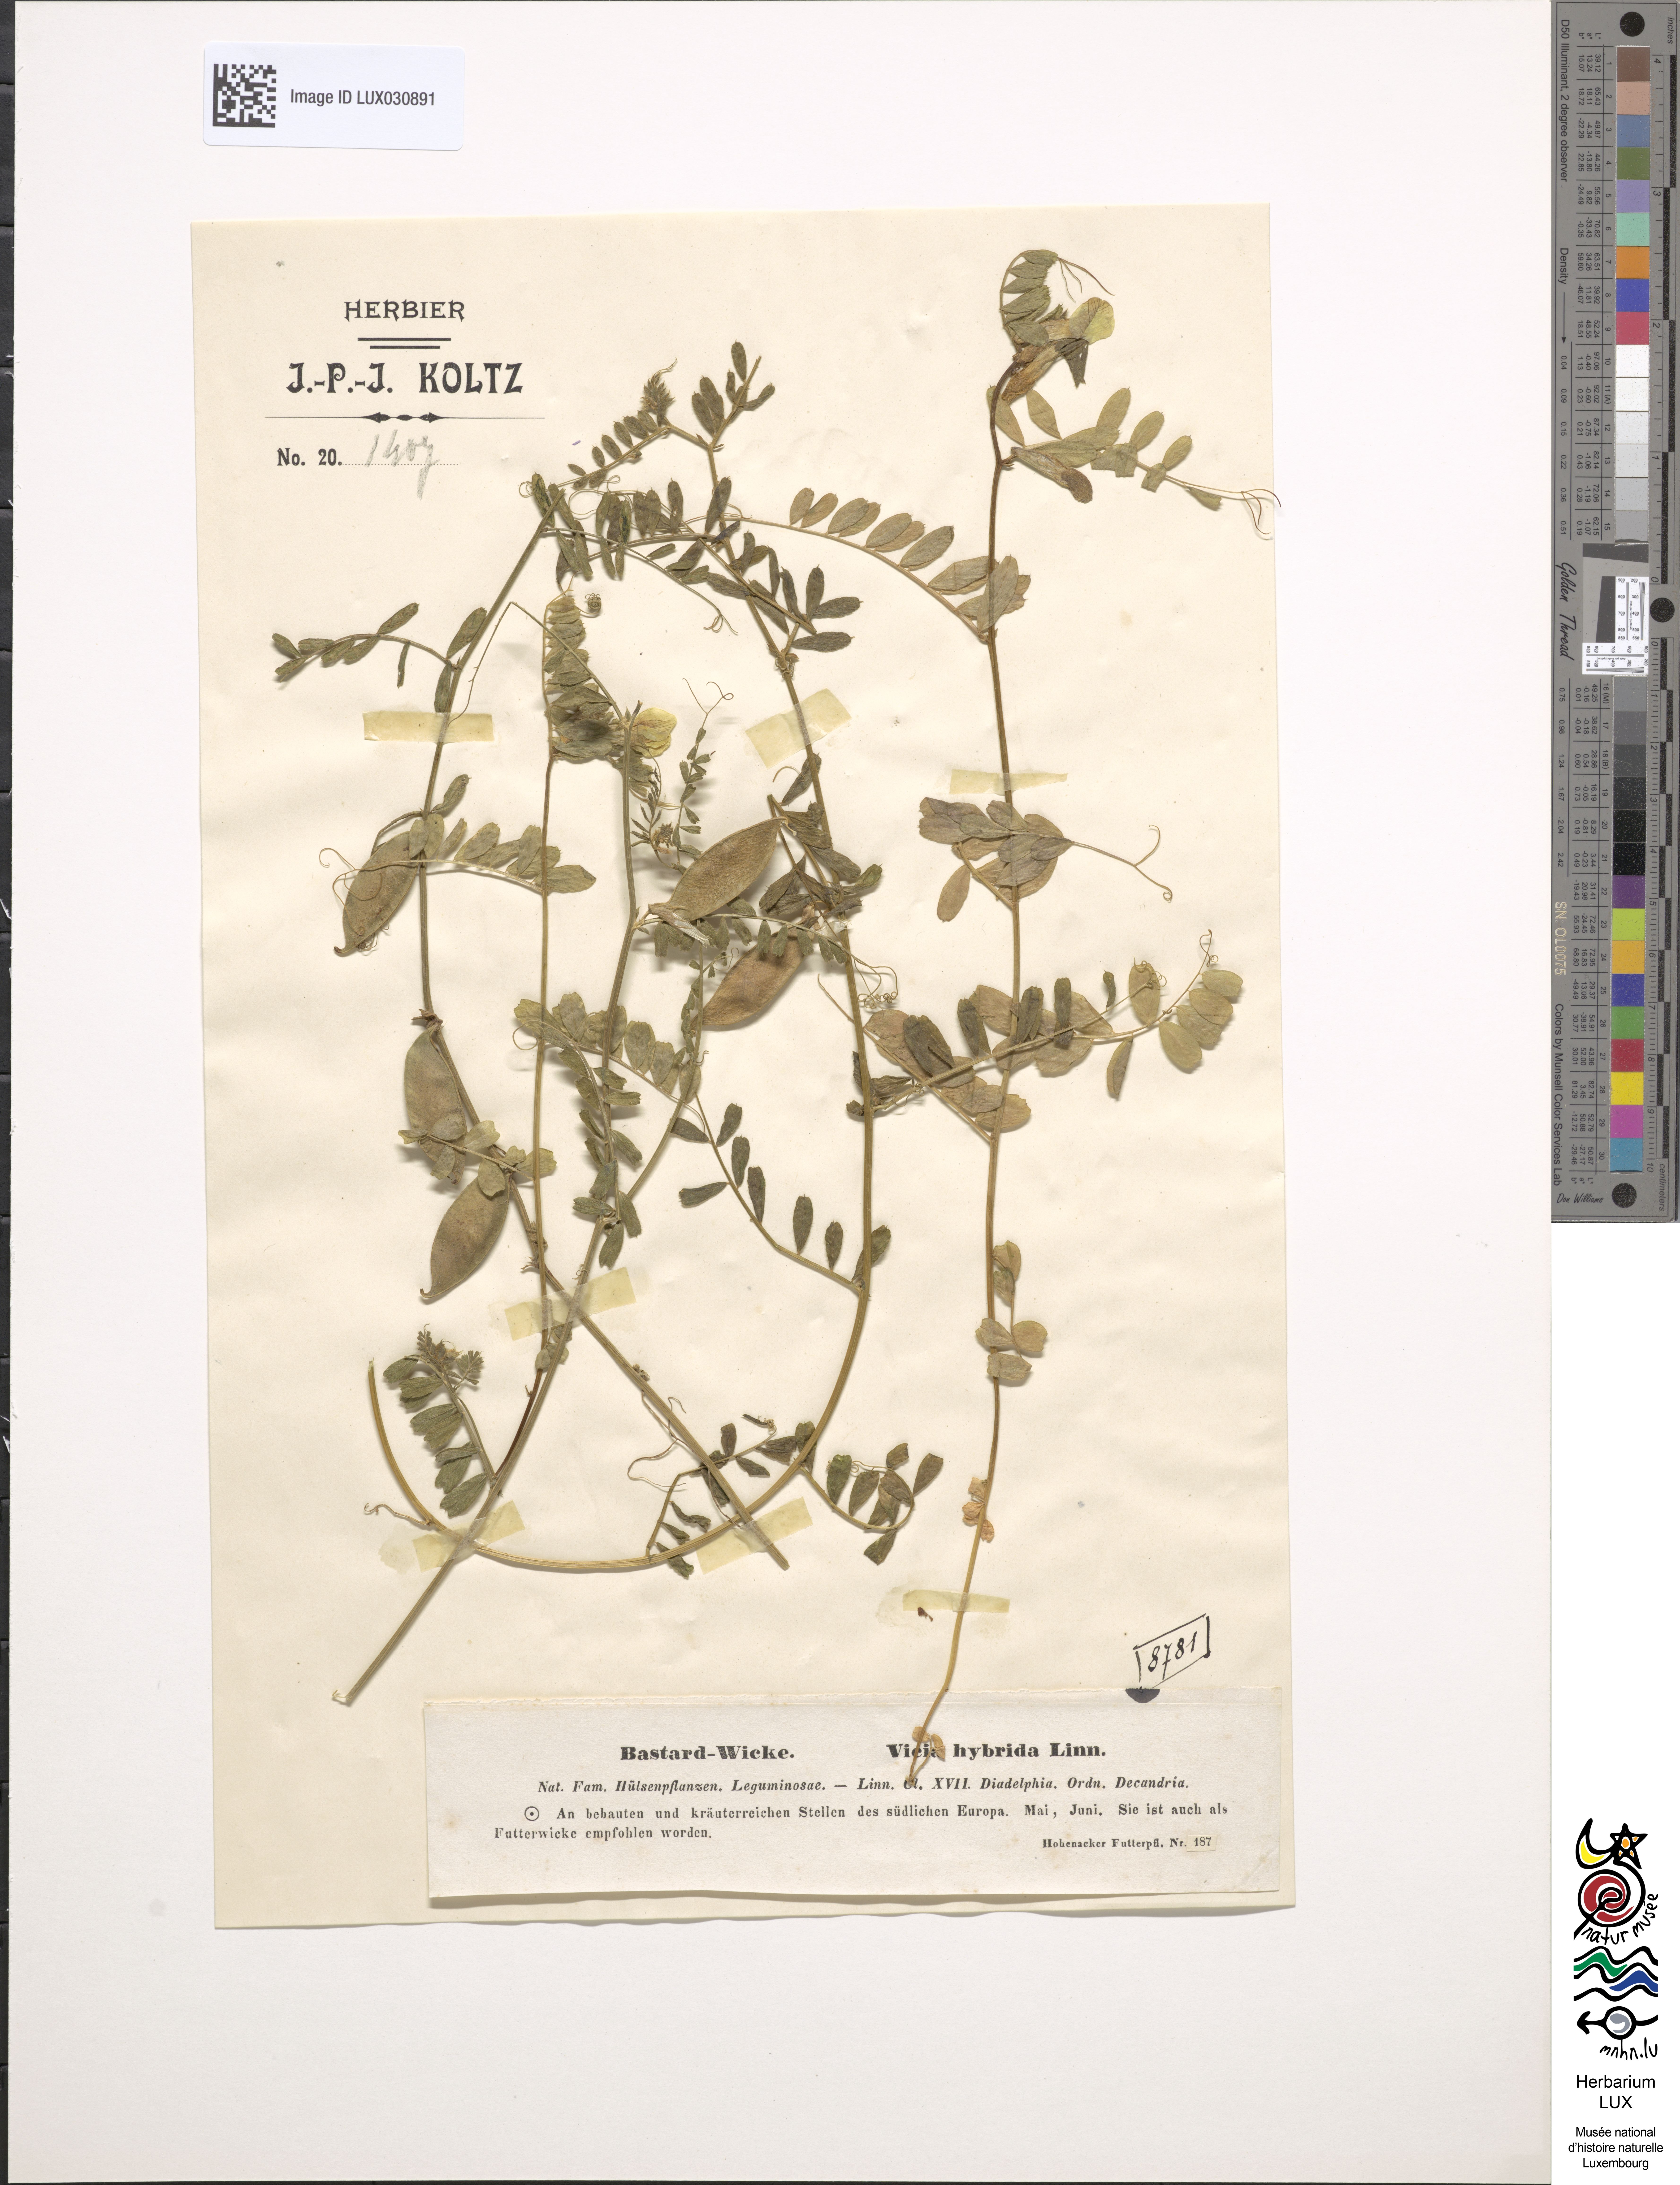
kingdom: Plantae
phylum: Tracheophyta
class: Magnoliopsida
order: Fabales
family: Fabaceae
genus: Vicia
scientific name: Vicia hybrida
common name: Hairy yellow vetch
